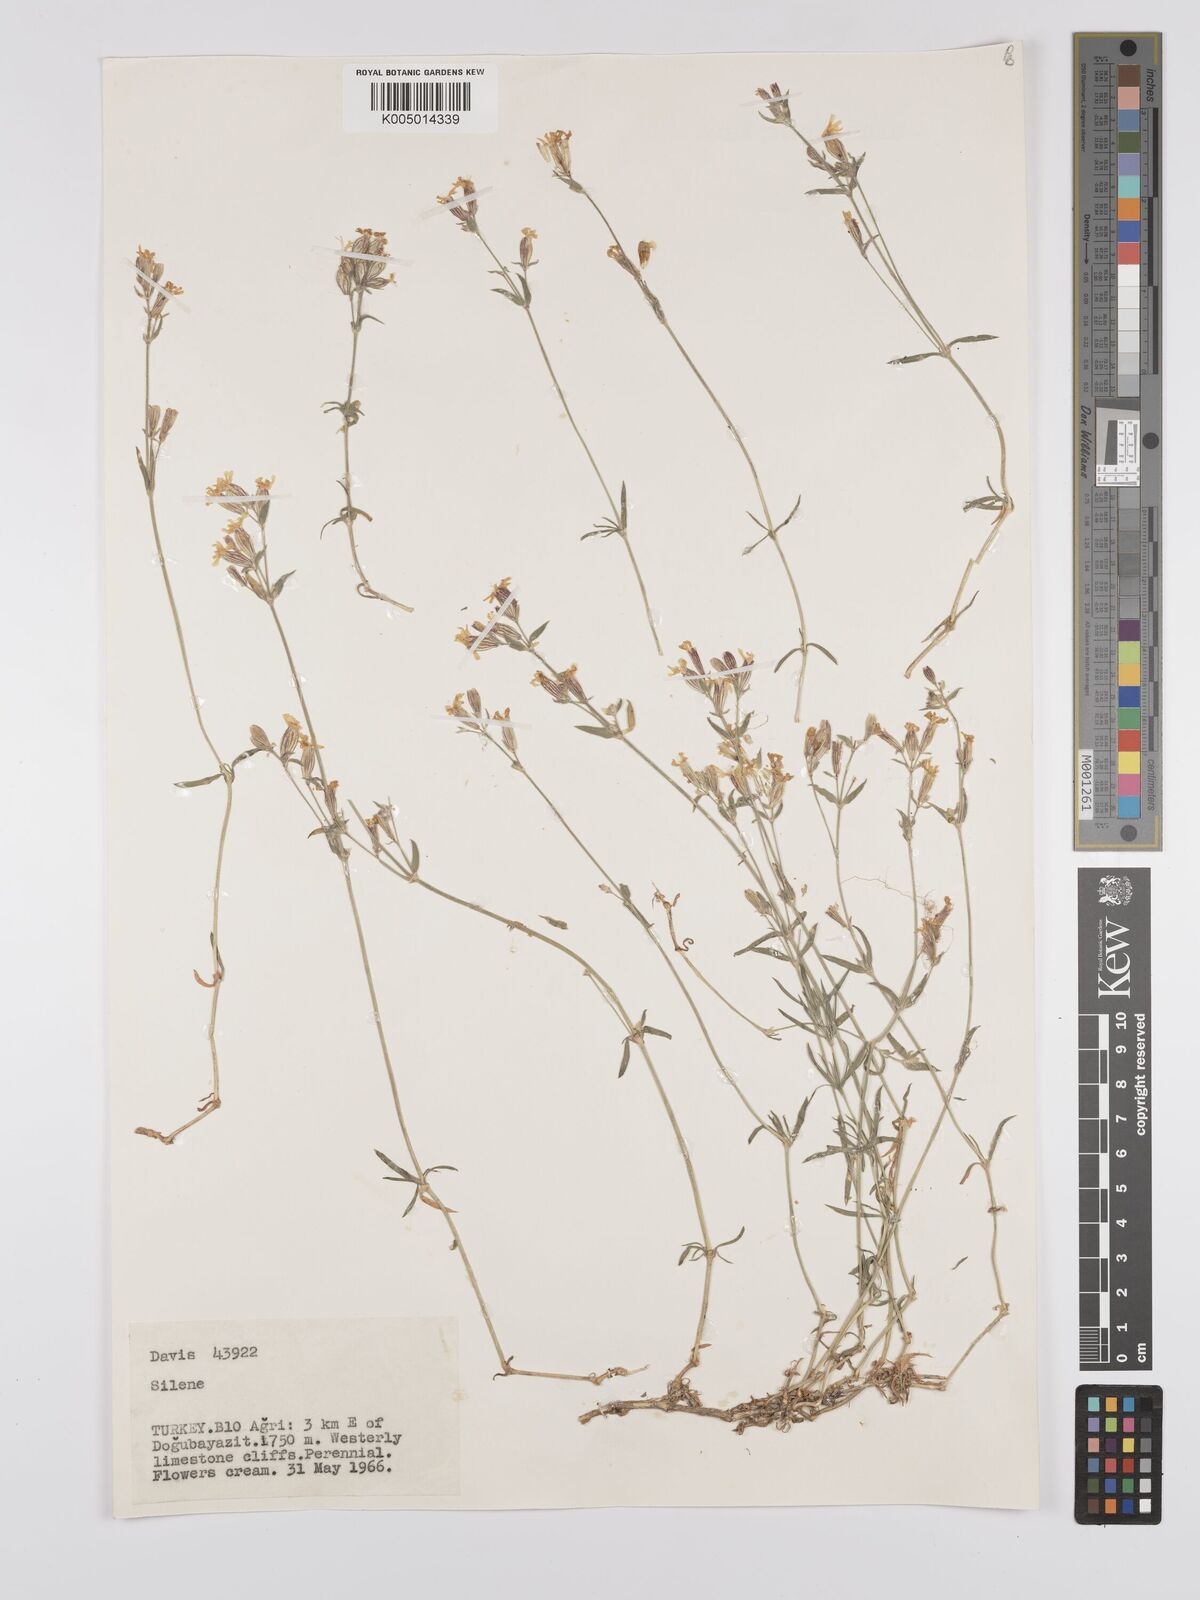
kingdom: Plantae
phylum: Tracheophyta
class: Magnoliopsida
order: Caryophyllales
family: Caryophyllaceae
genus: Silene
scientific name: Silene
